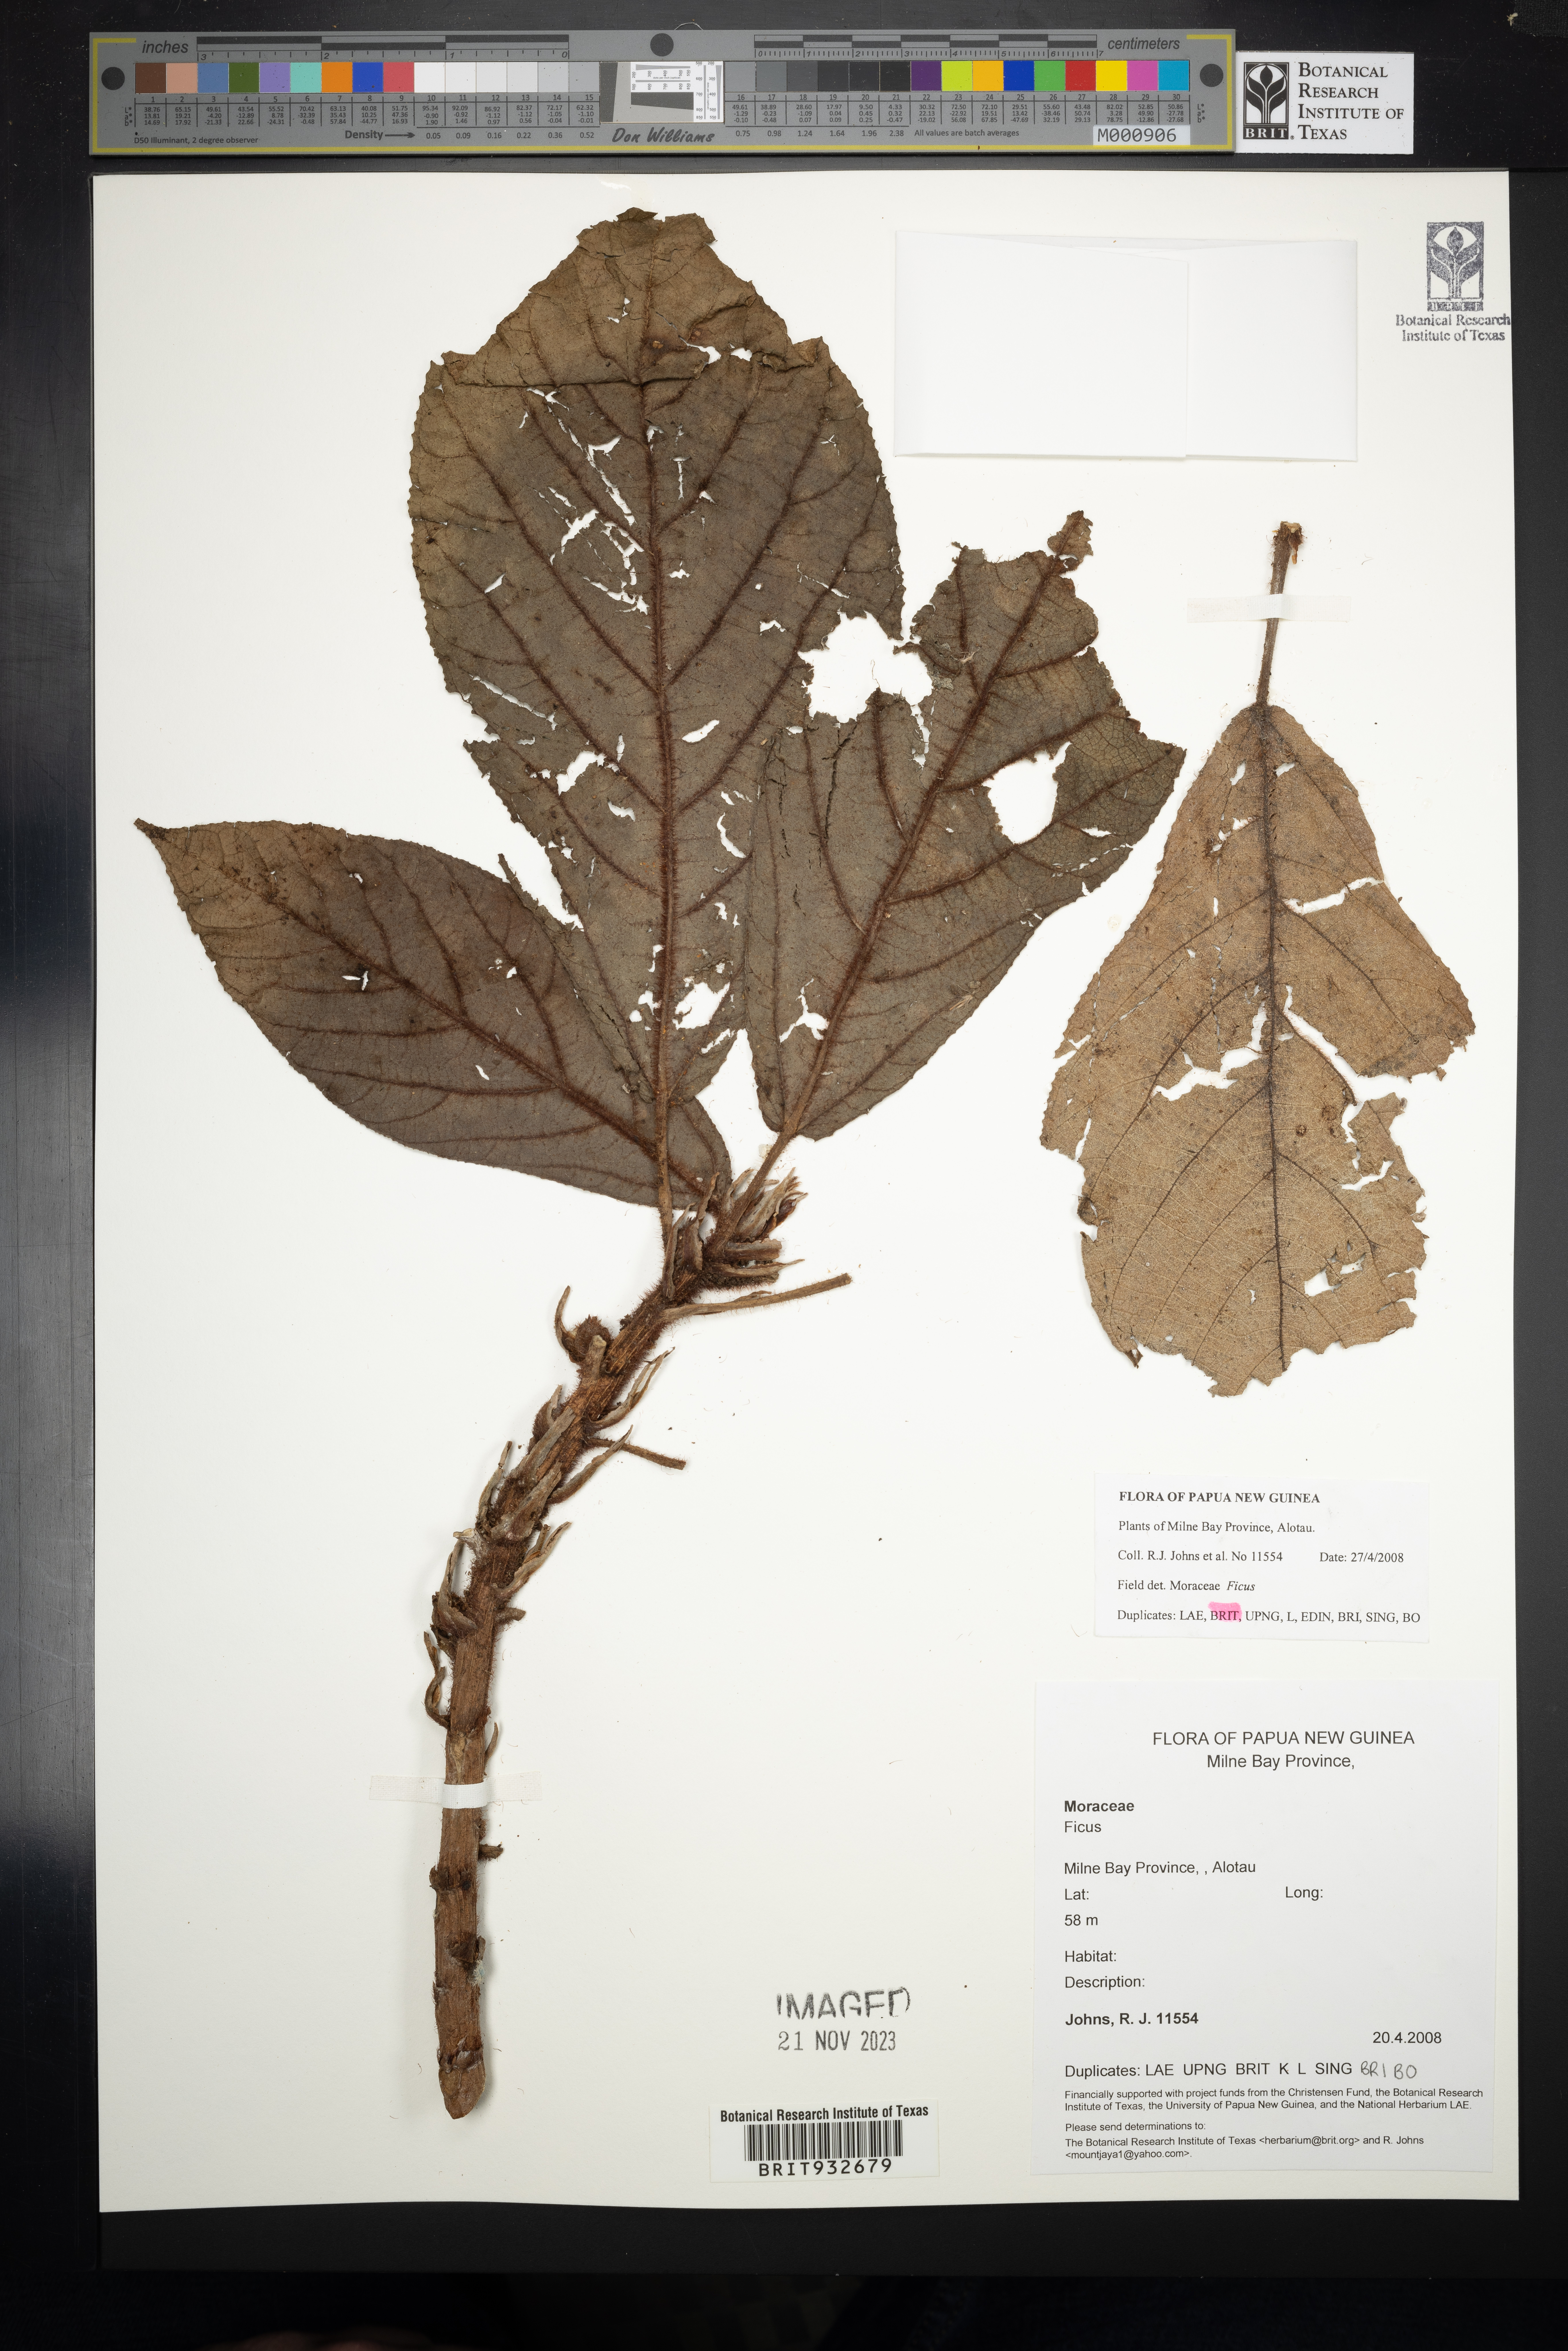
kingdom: Plantae
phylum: Tracheophyta
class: Magnoliopsida
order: Rosales
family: Moraceae
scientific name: Moraceae
